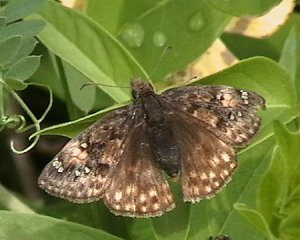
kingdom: Animalia
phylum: Arthropoda
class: Insecta
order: Lepidoptera
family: Hesperiidae
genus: Gesta
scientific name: Gesta
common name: Juvenal's Duskywing
